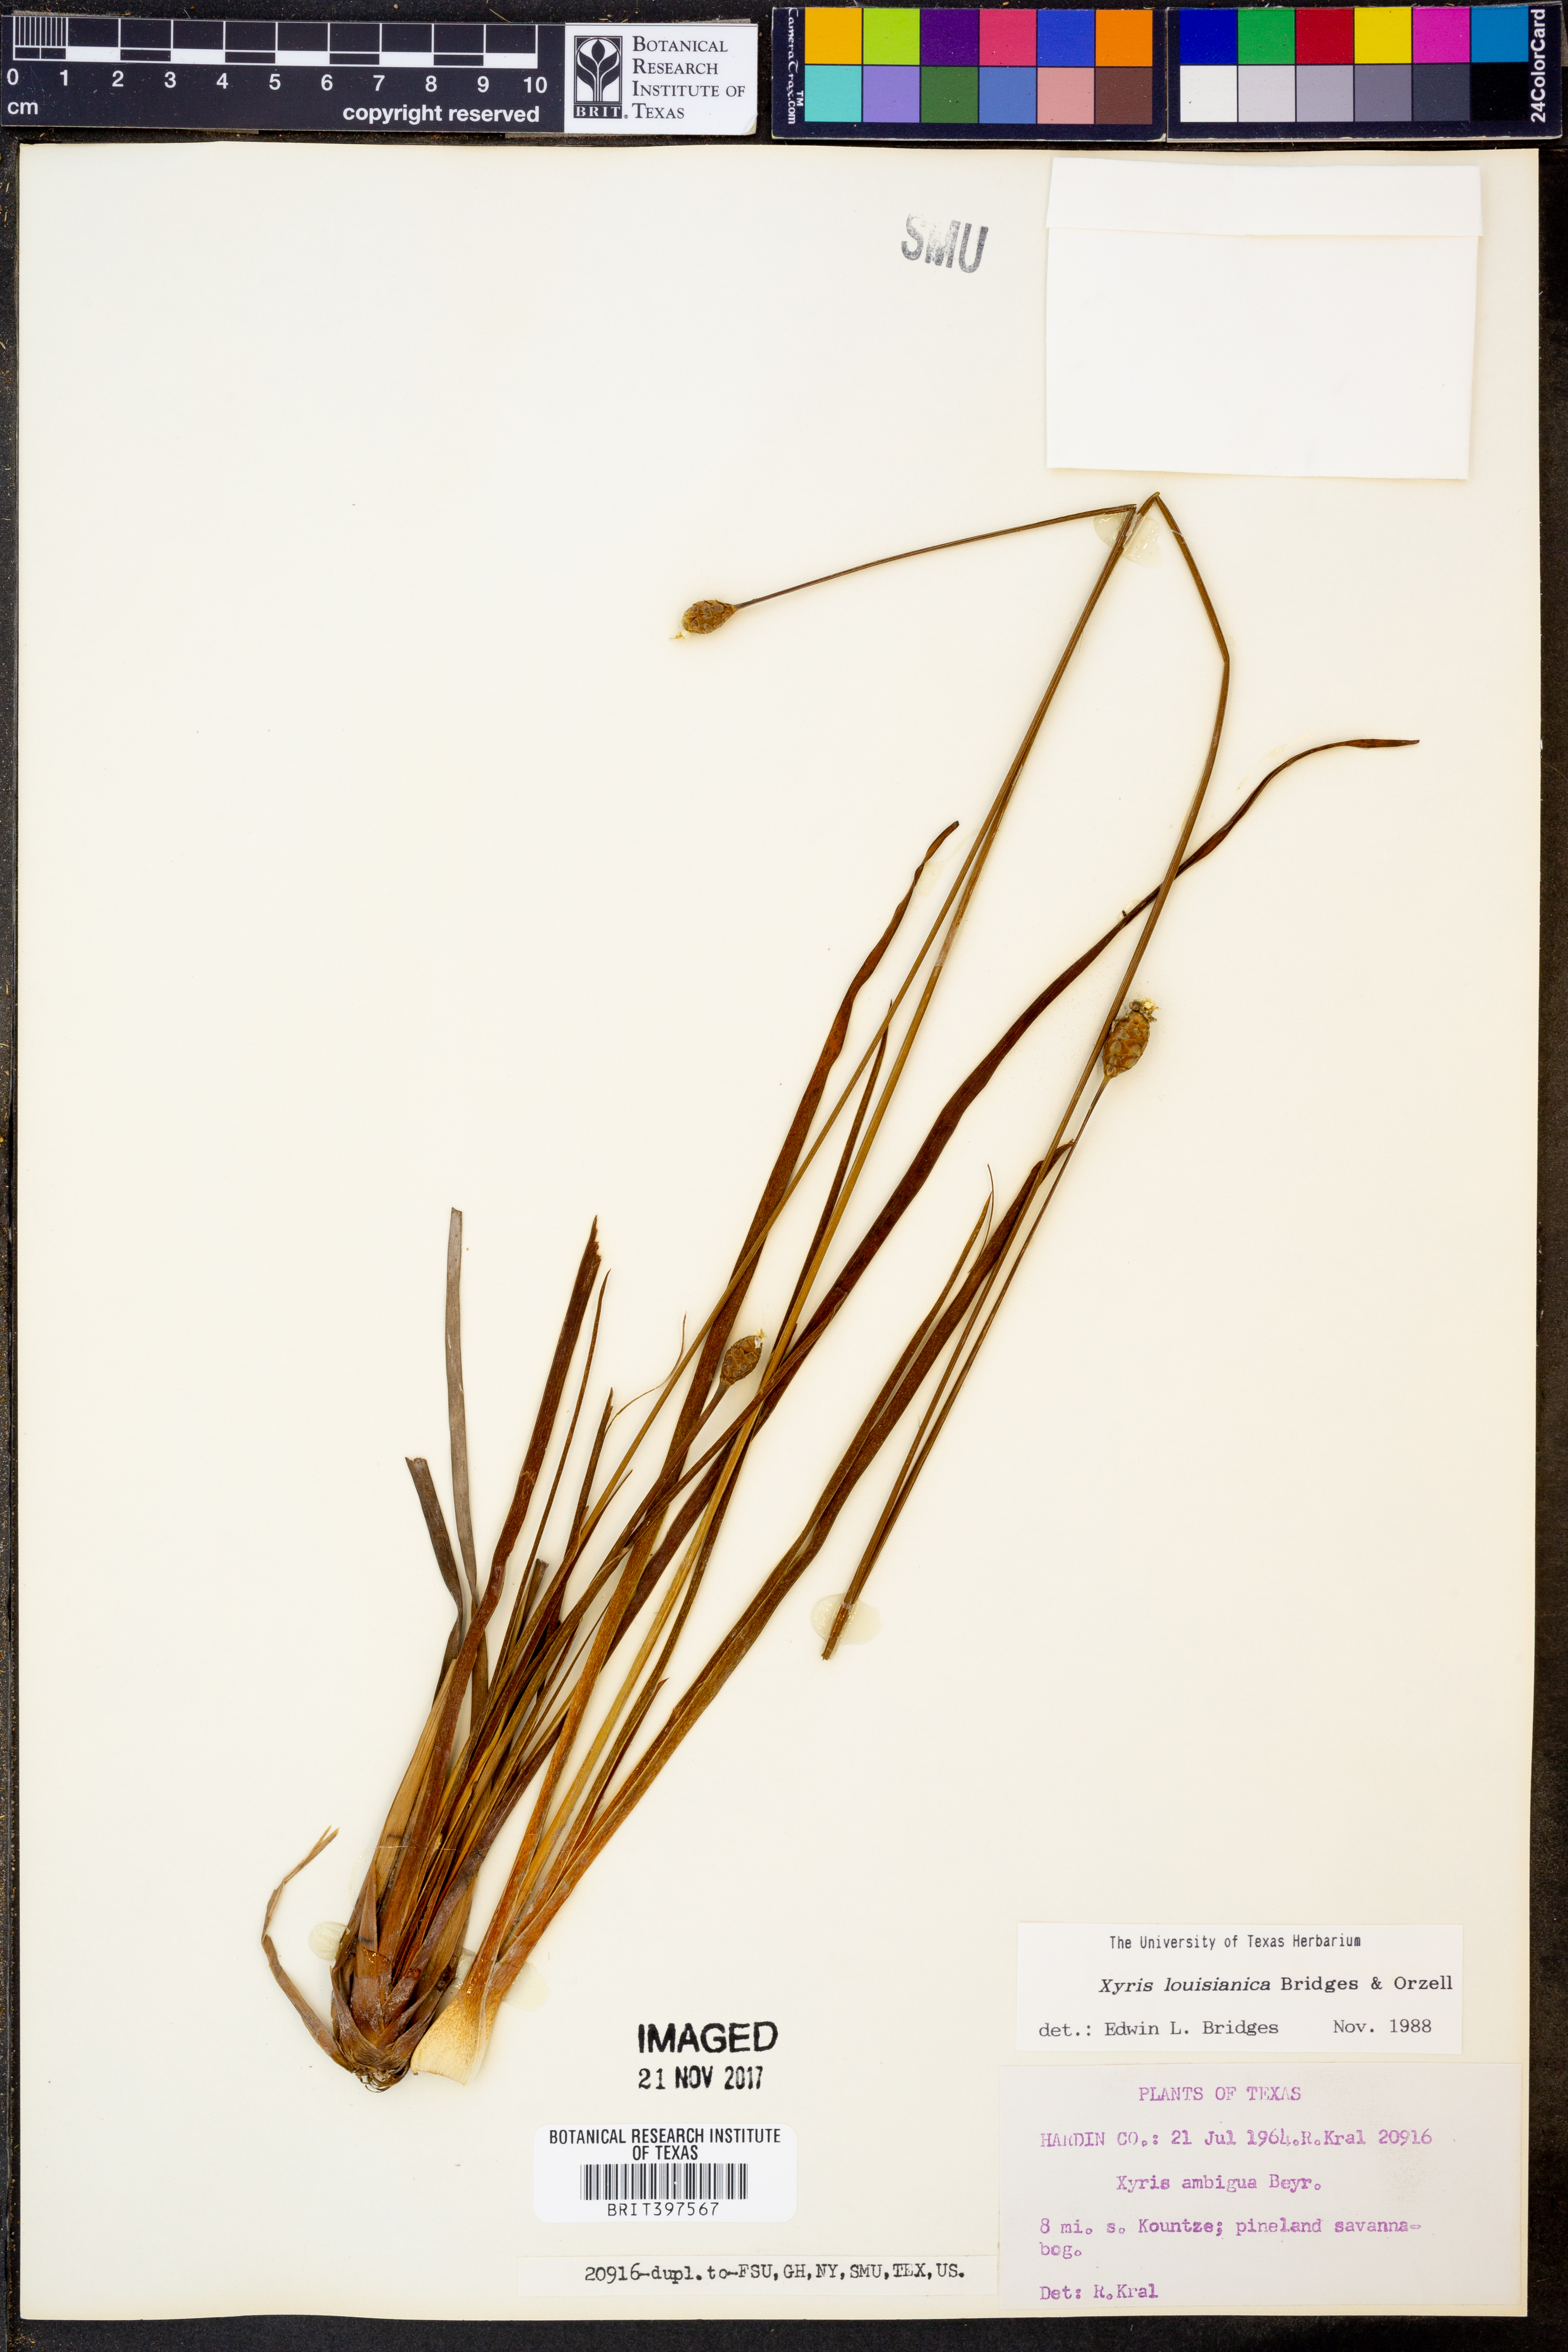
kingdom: Plantae
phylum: Tracheophyta
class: Liliopsida
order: Poales
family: Xyridaceae
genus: Xyris
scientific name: Xyris stricta
